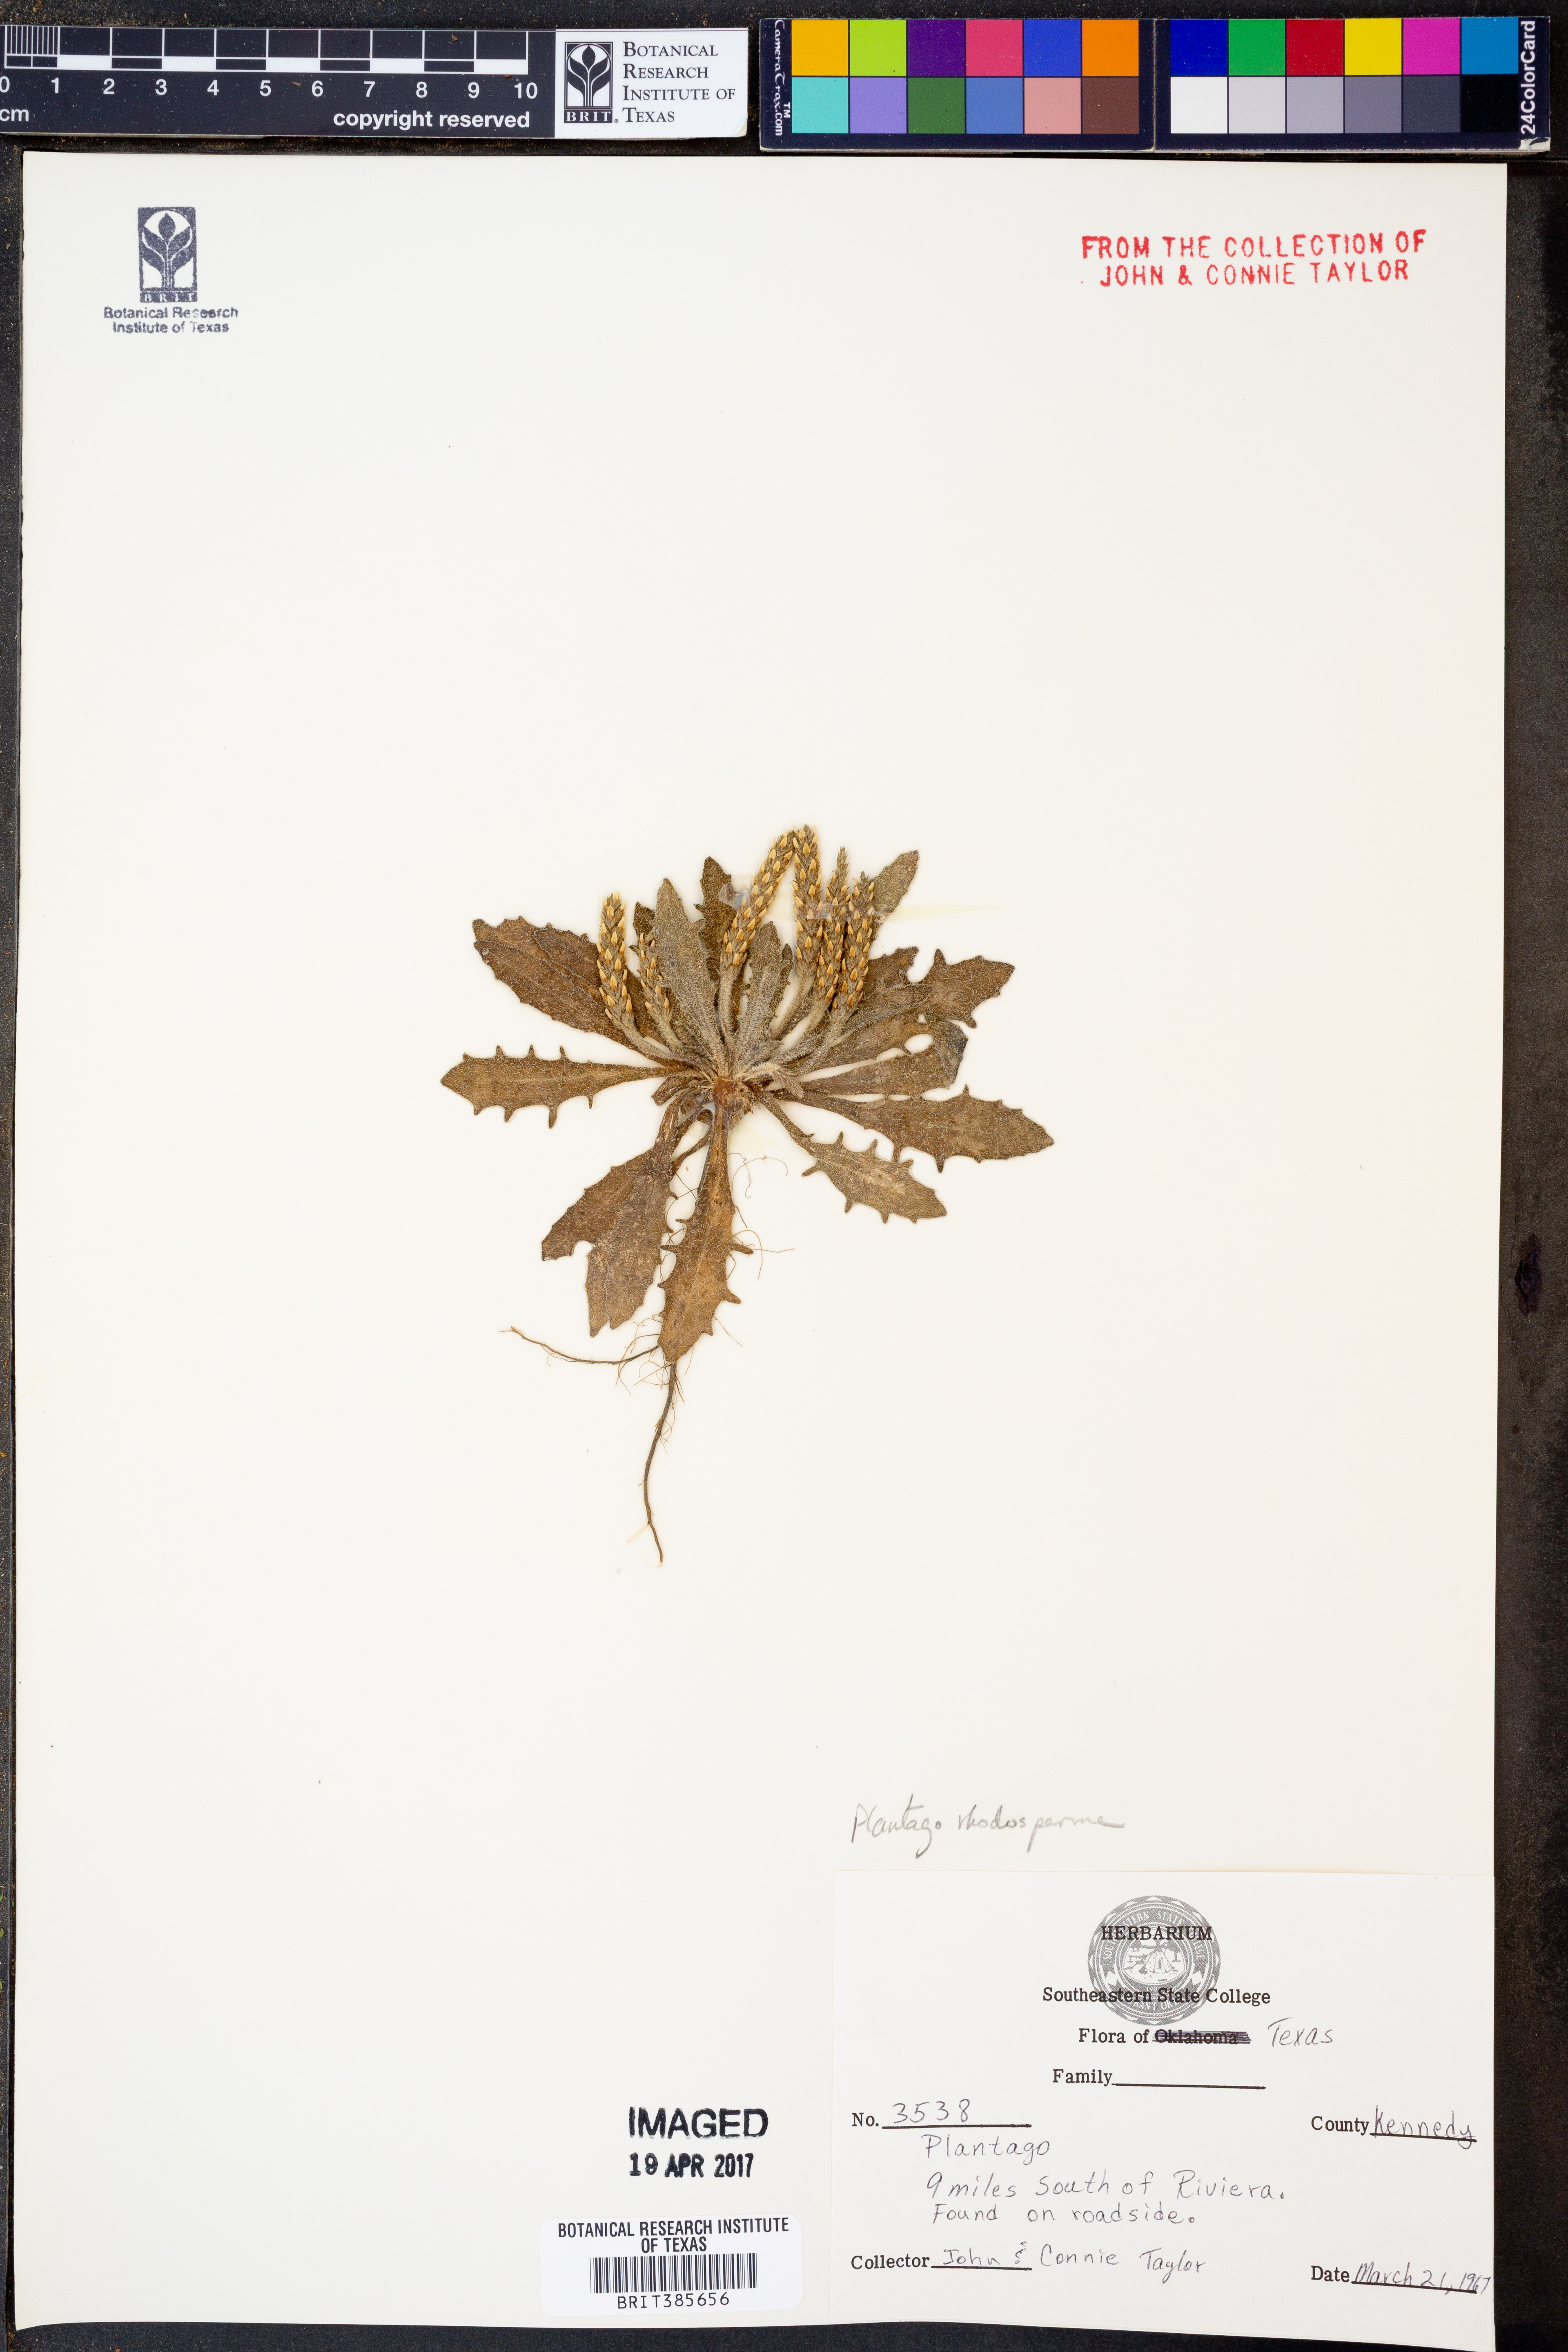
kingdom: Plantae
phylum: Tracheophyta
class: Magnoliopsida
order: Lamiales
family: Plantaginaceae
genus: Plantago
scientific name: Plantago rhodosperma
